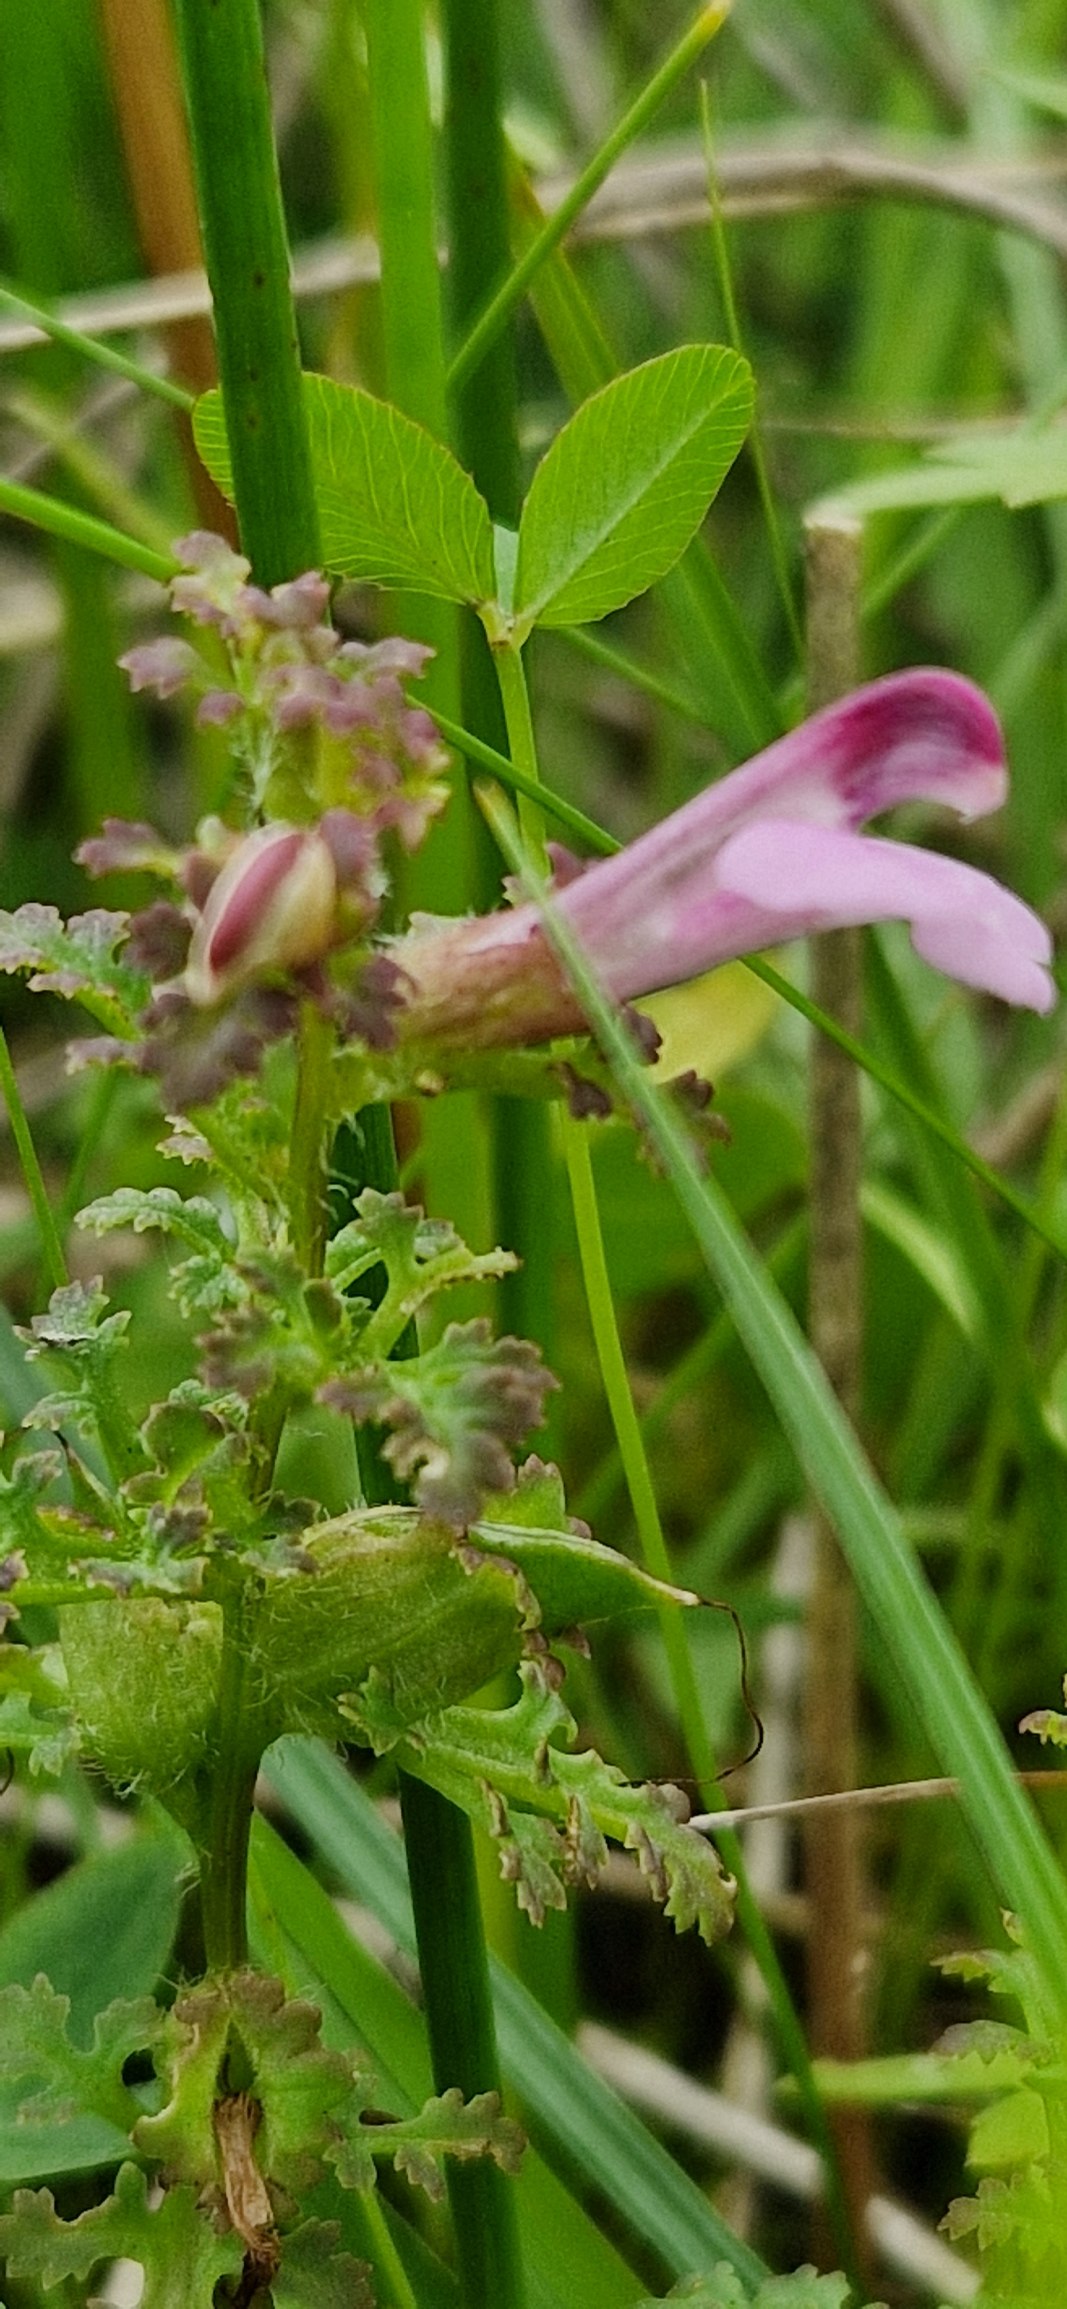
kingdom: Plantae
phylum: Tracheophyta
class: Magnoliopsida
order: Lamiales
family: Orobanchaceae
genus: Pedicularis
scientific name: Pedicularis palustris
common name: Eng-troldurt
